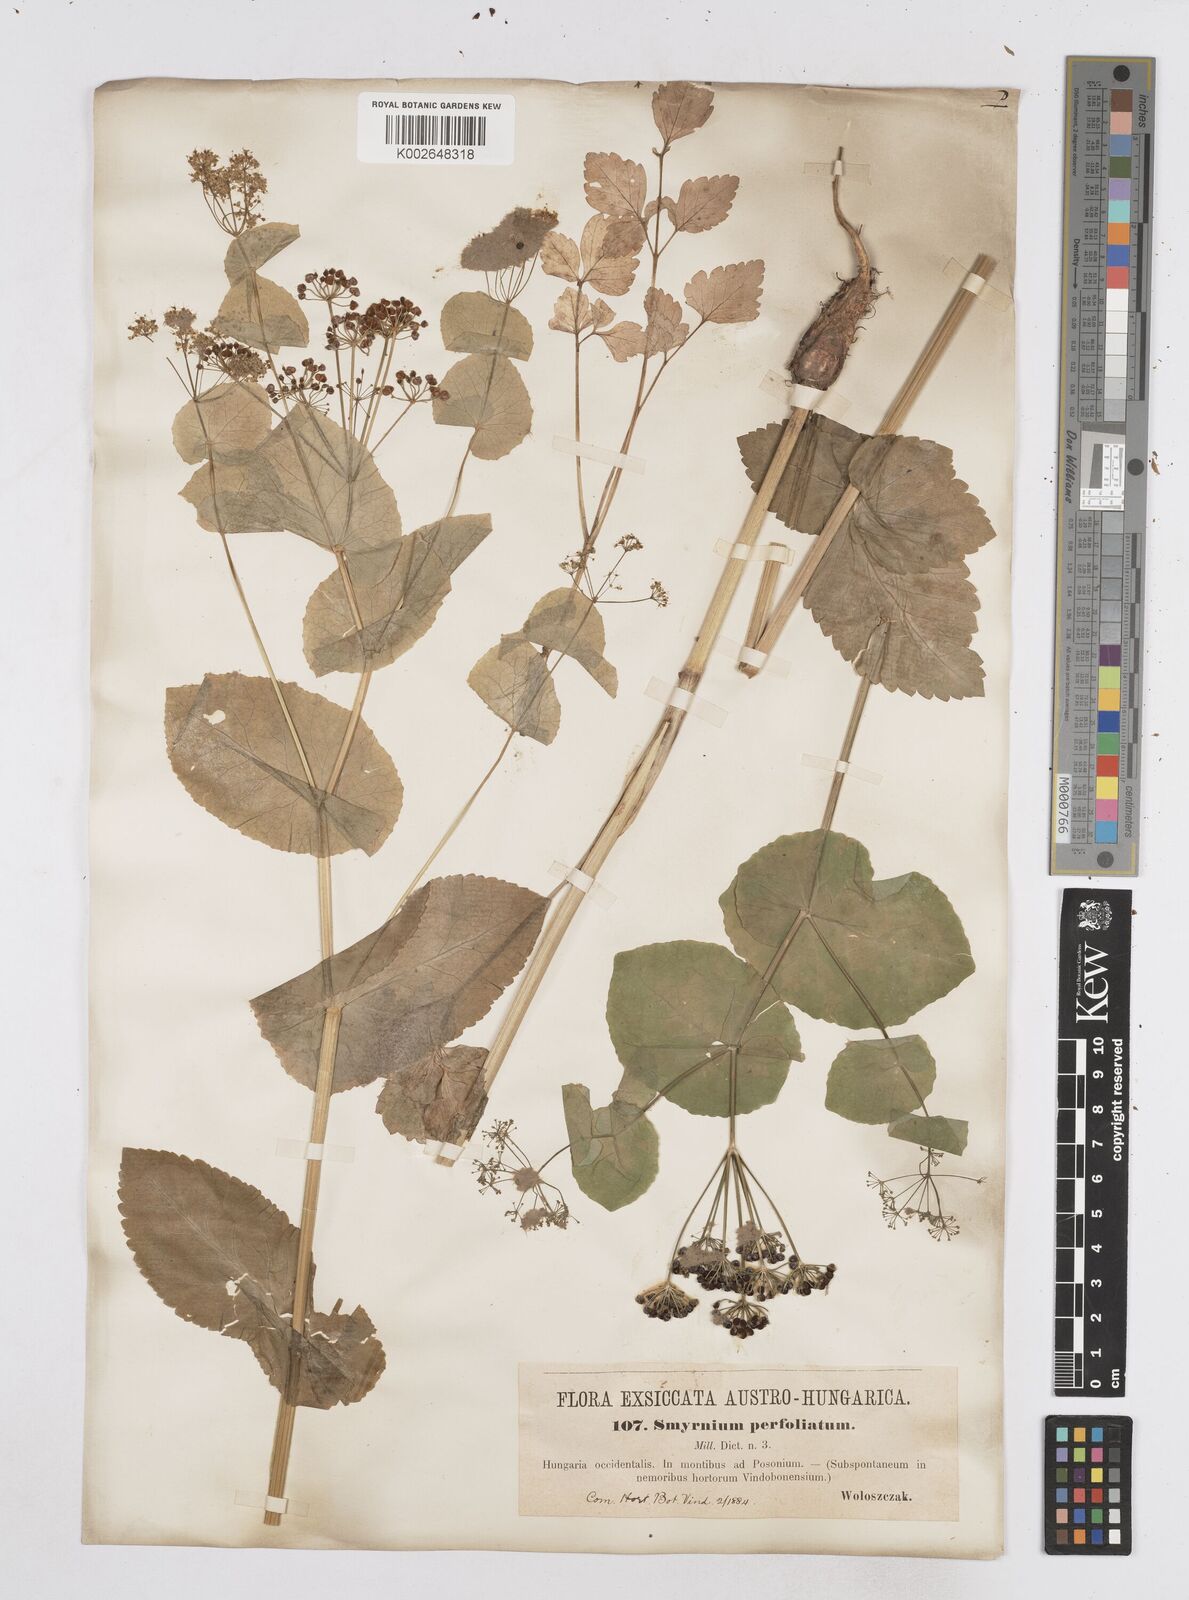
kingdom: Plantae
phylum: Tracheophyta
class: Magnoliopsida
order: Apiales
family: Apiaceae
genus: Smyrnium
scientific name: Smyrnium perfoliatum
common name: Perfoliate alexanders
